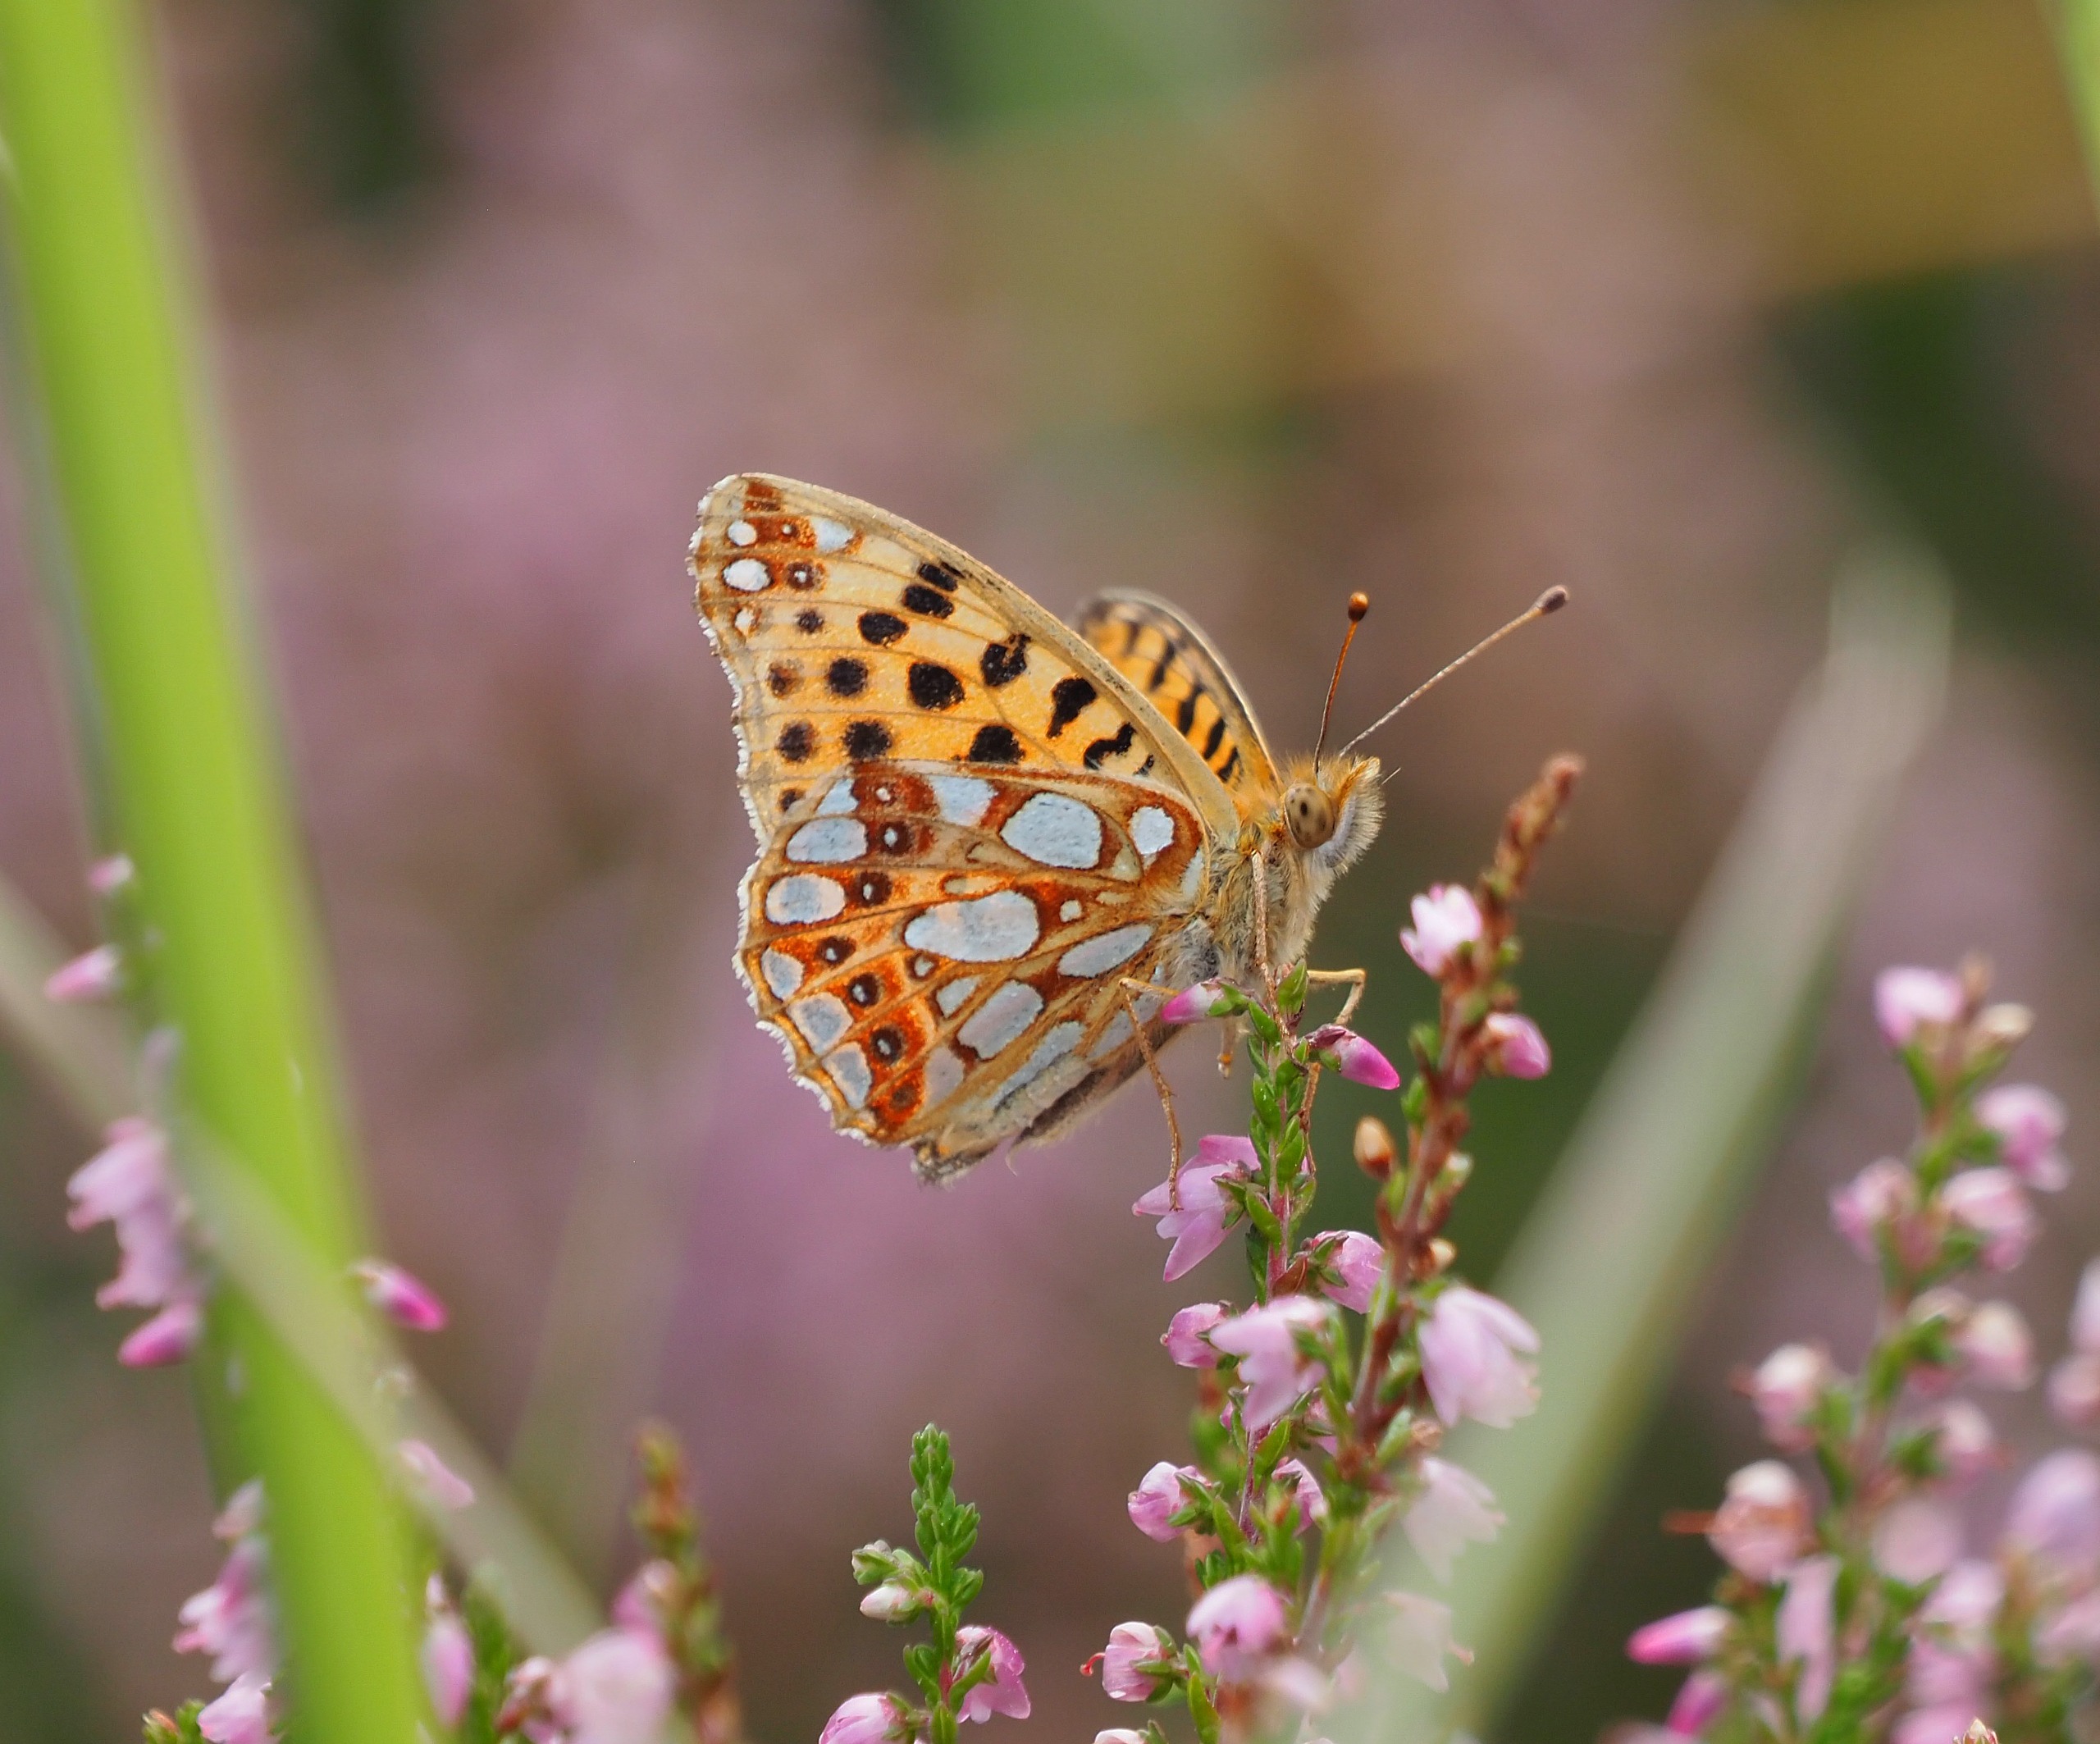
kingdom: Animalia
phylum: Arthropoda
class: Insecta
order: Lepidoptera
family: Nymphalidae
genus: Issoria
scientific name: Issoria lathonia
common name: Storplettet perlemorsommerfugl
